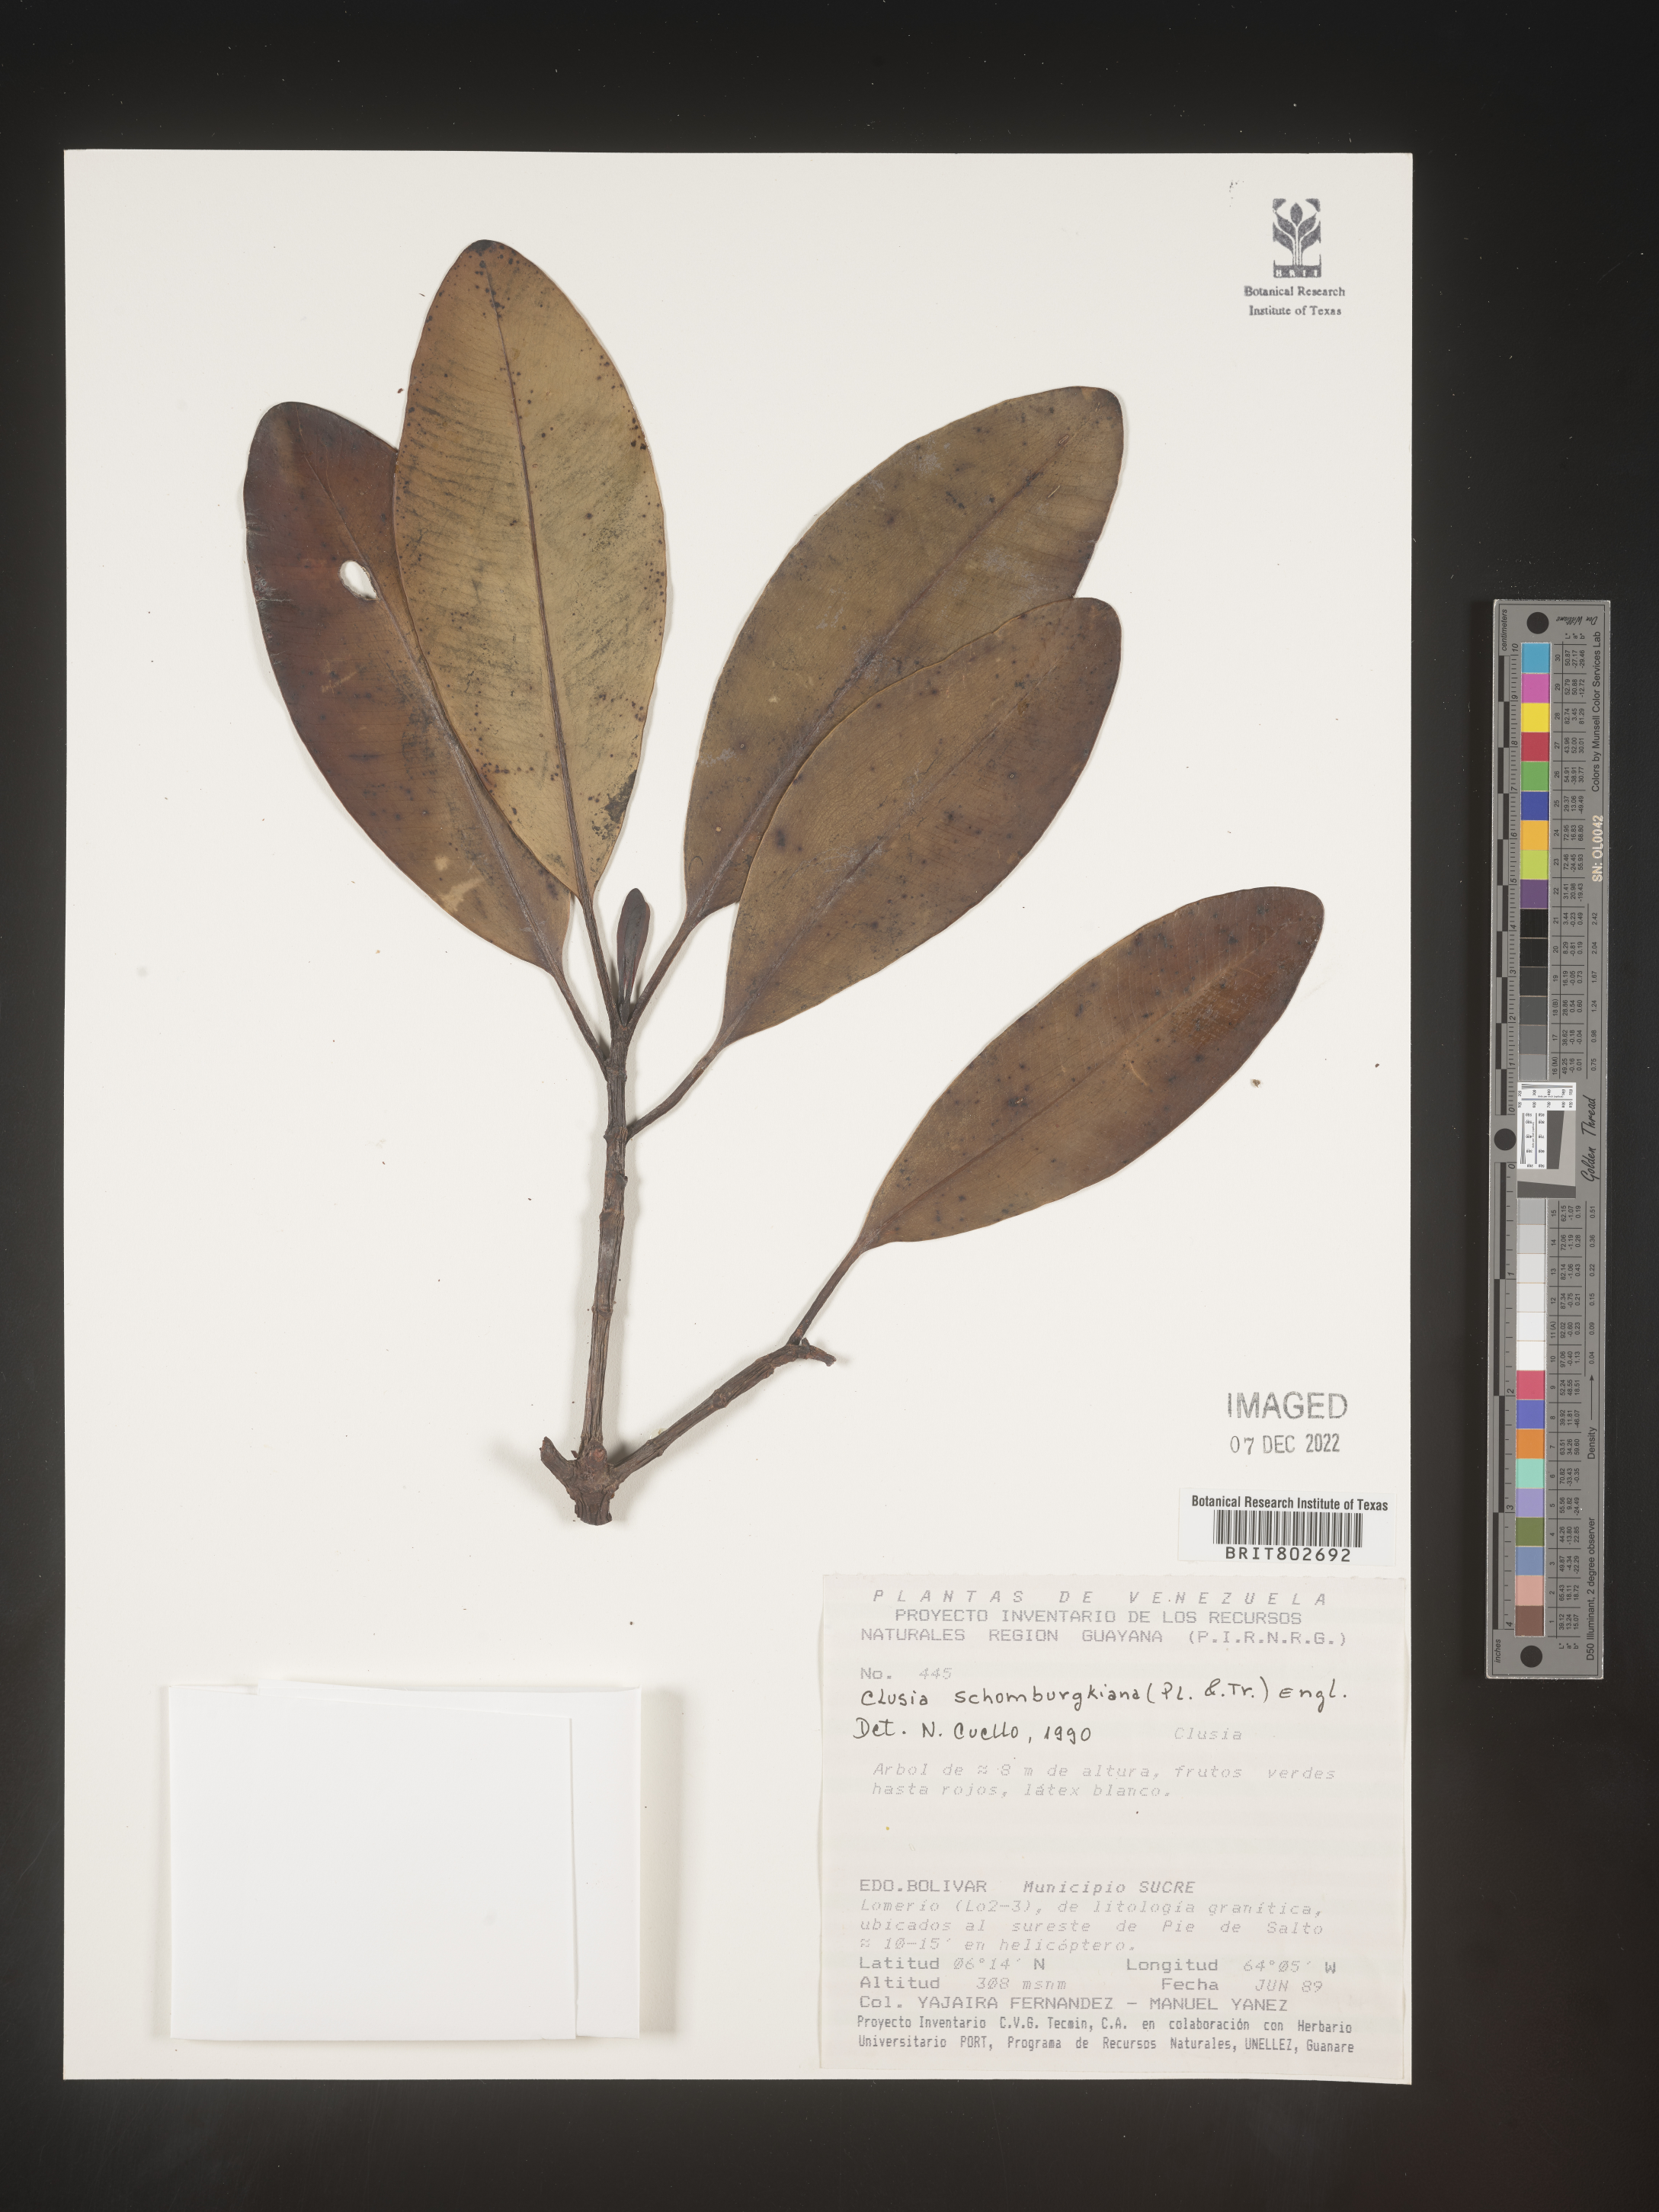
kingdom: Plantae
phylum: Tracheophyta
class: Magnoliopsida
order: Malpighiales
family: Clusiaceae
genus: Clusia
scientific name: Clusia schomburgkiana
